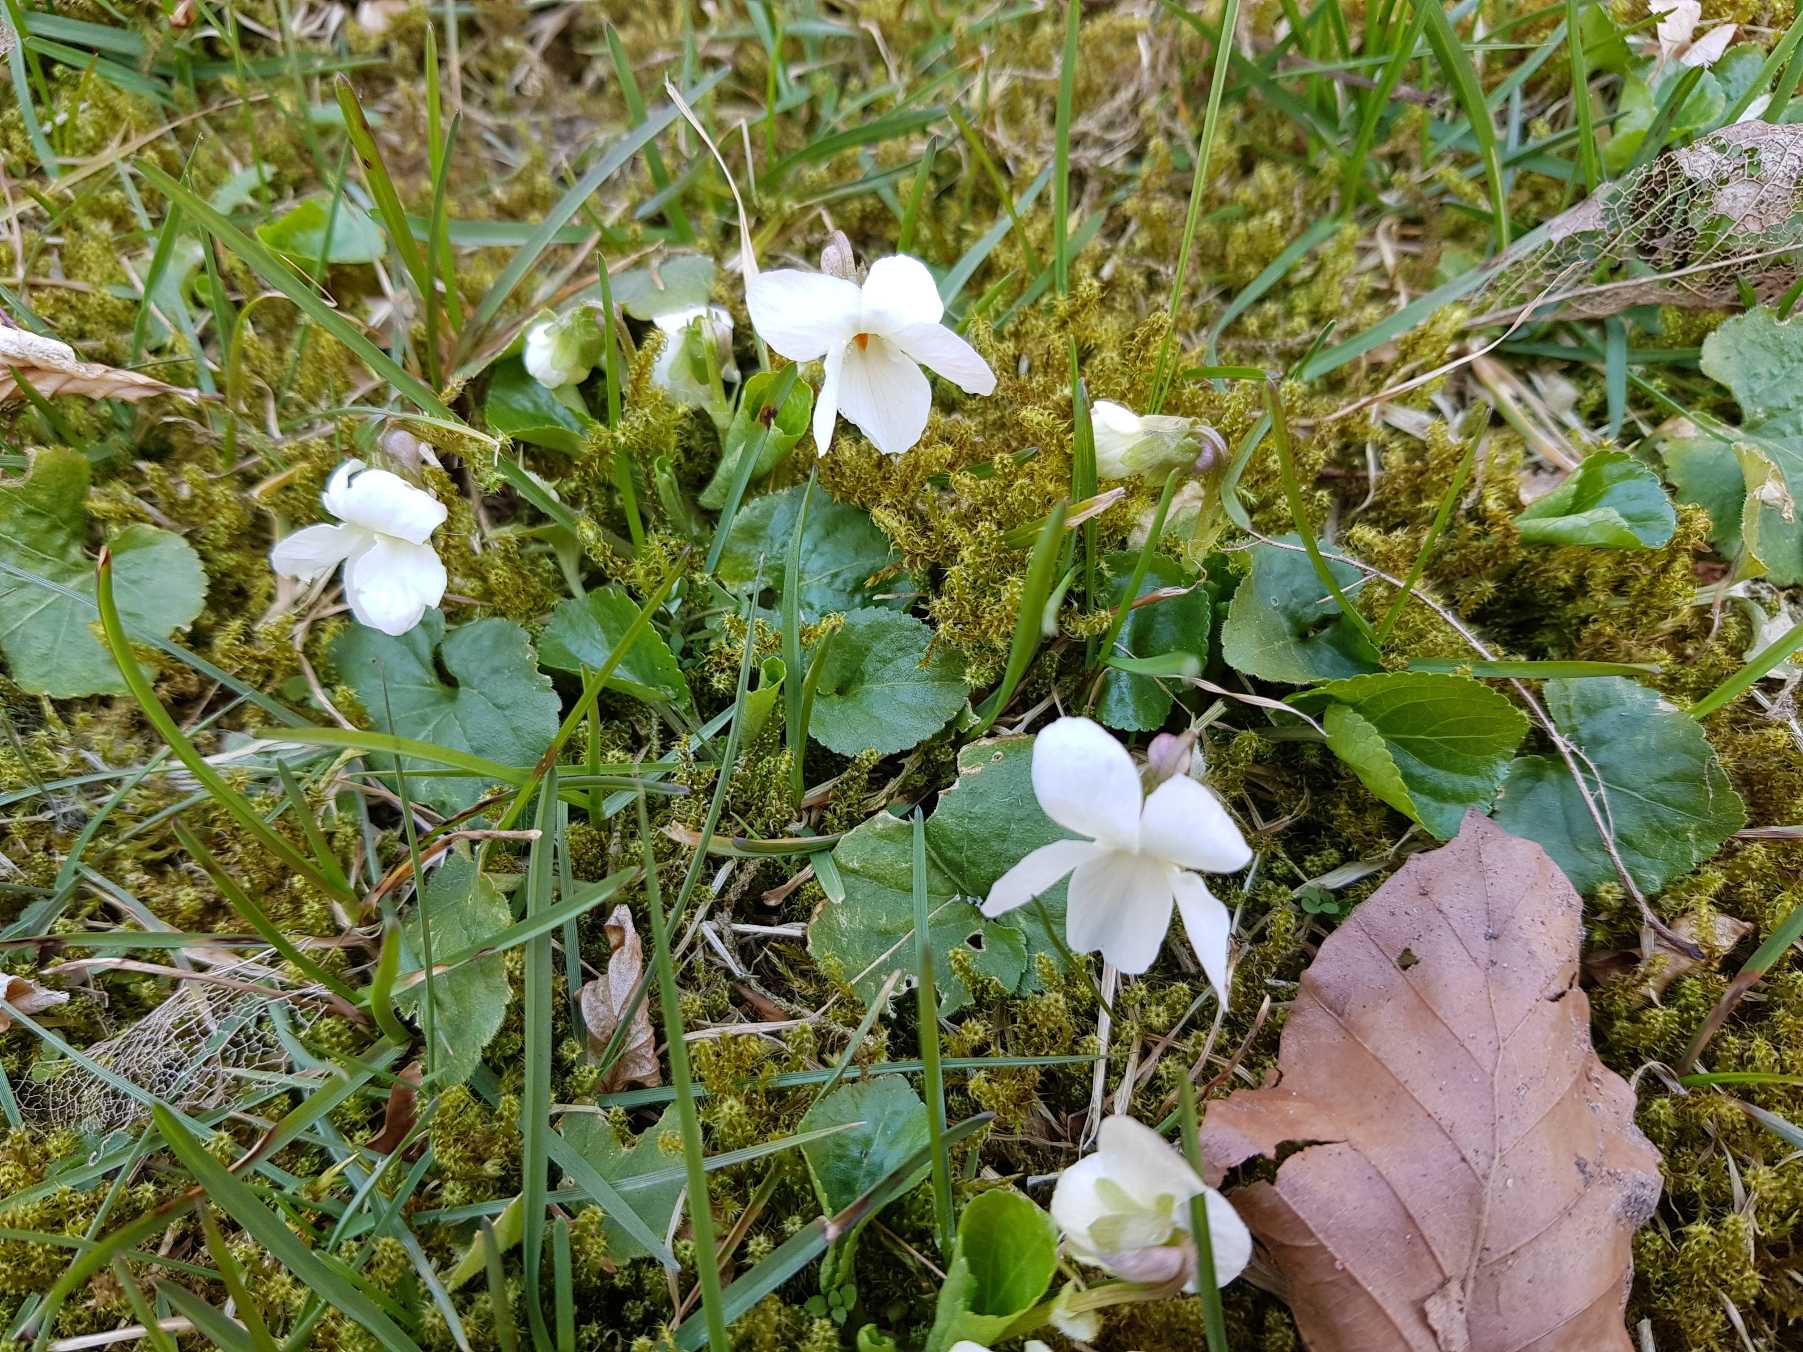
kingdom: Plantae
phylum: Tracheophyta
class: Magnoliopsida
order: Malpighiales
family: Violaceae
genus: Viola
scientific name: Viola odorata
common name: Marts-viol
